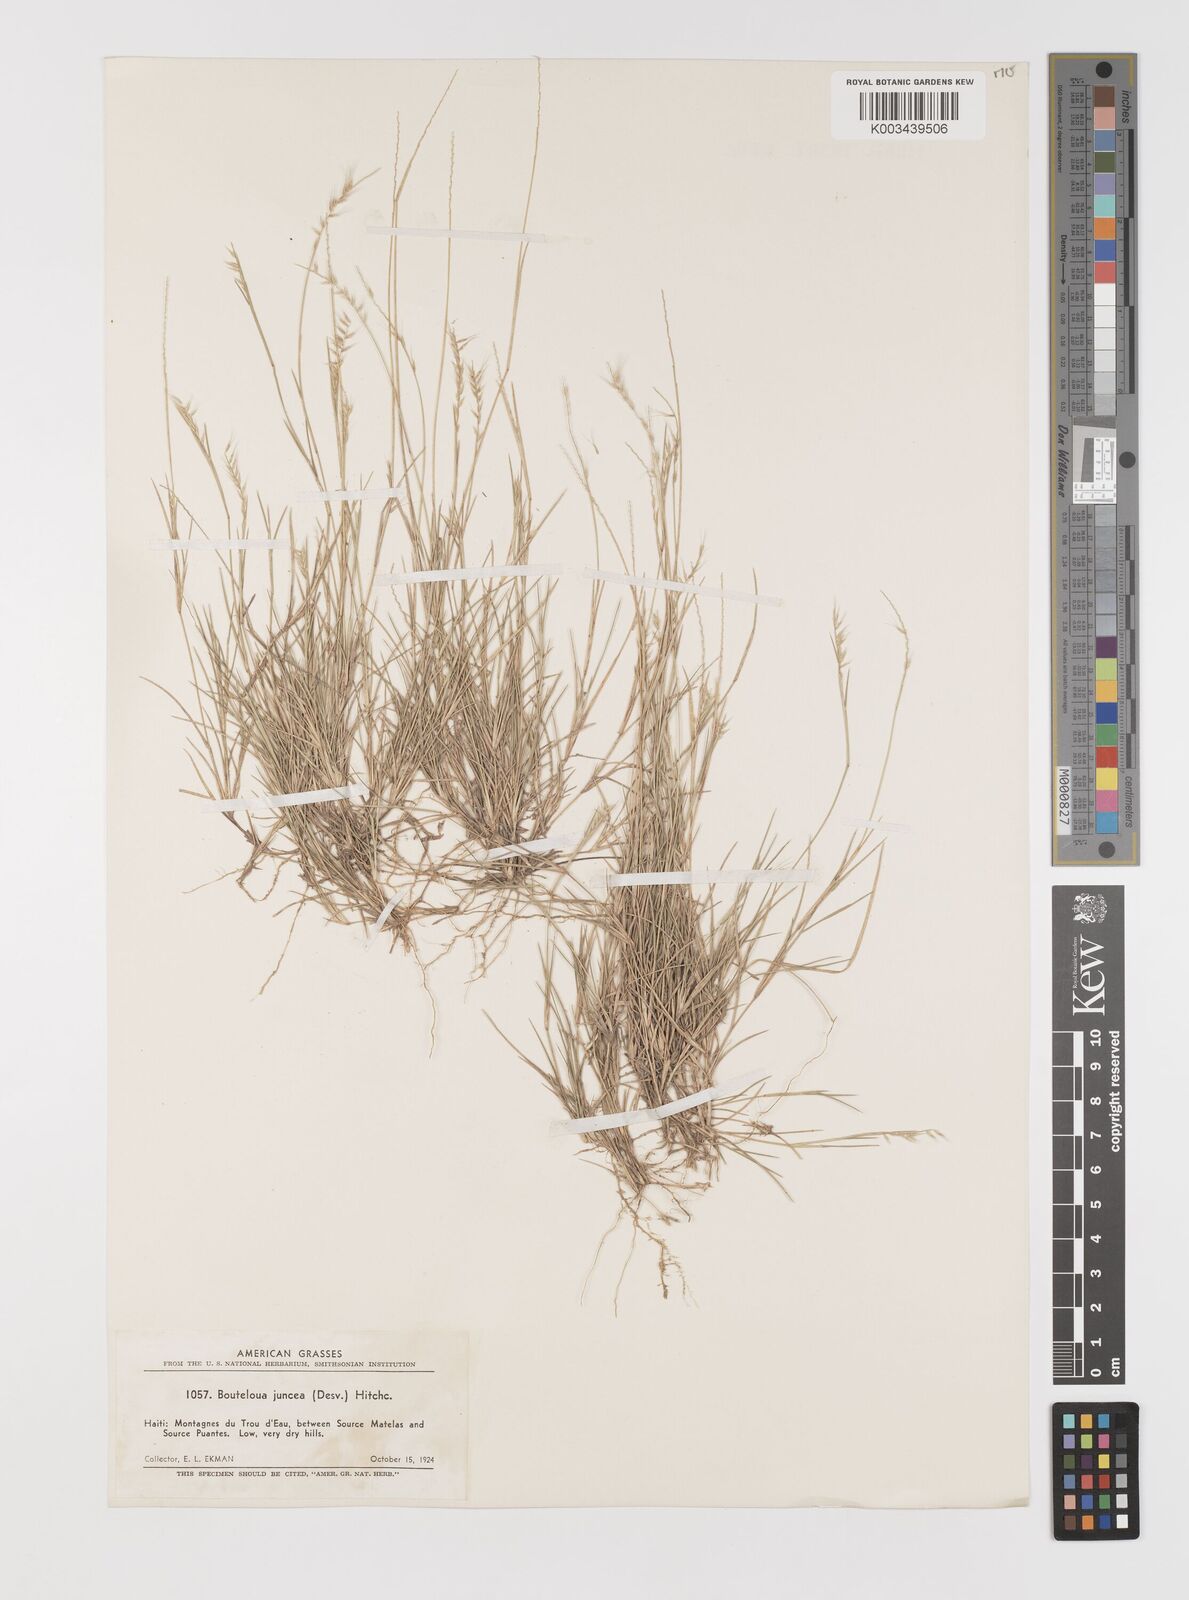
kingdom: Plantae
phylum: Tracheophyta
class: Liliopsida
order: Poales
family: Poaceae
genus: Bouteloua
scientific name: Bouteloua juncea
